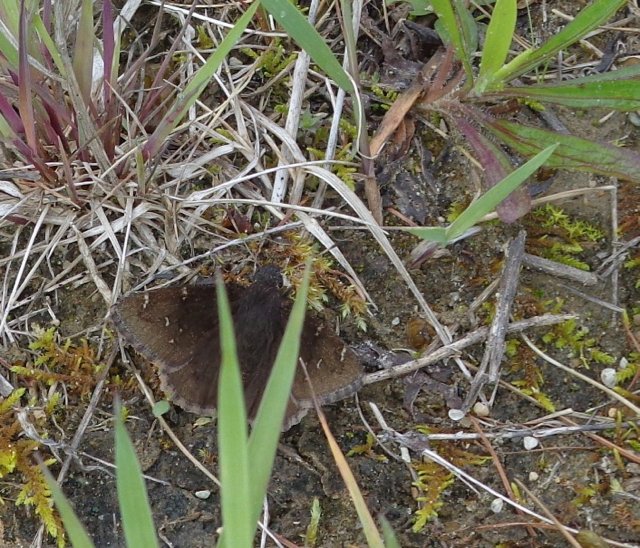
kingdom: Animalia
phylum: Arthropoda
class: Insecta
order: Lepidoptera
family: Hesperiidae
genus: Autochton
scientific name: Autochton
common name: Northern Cloudywing
